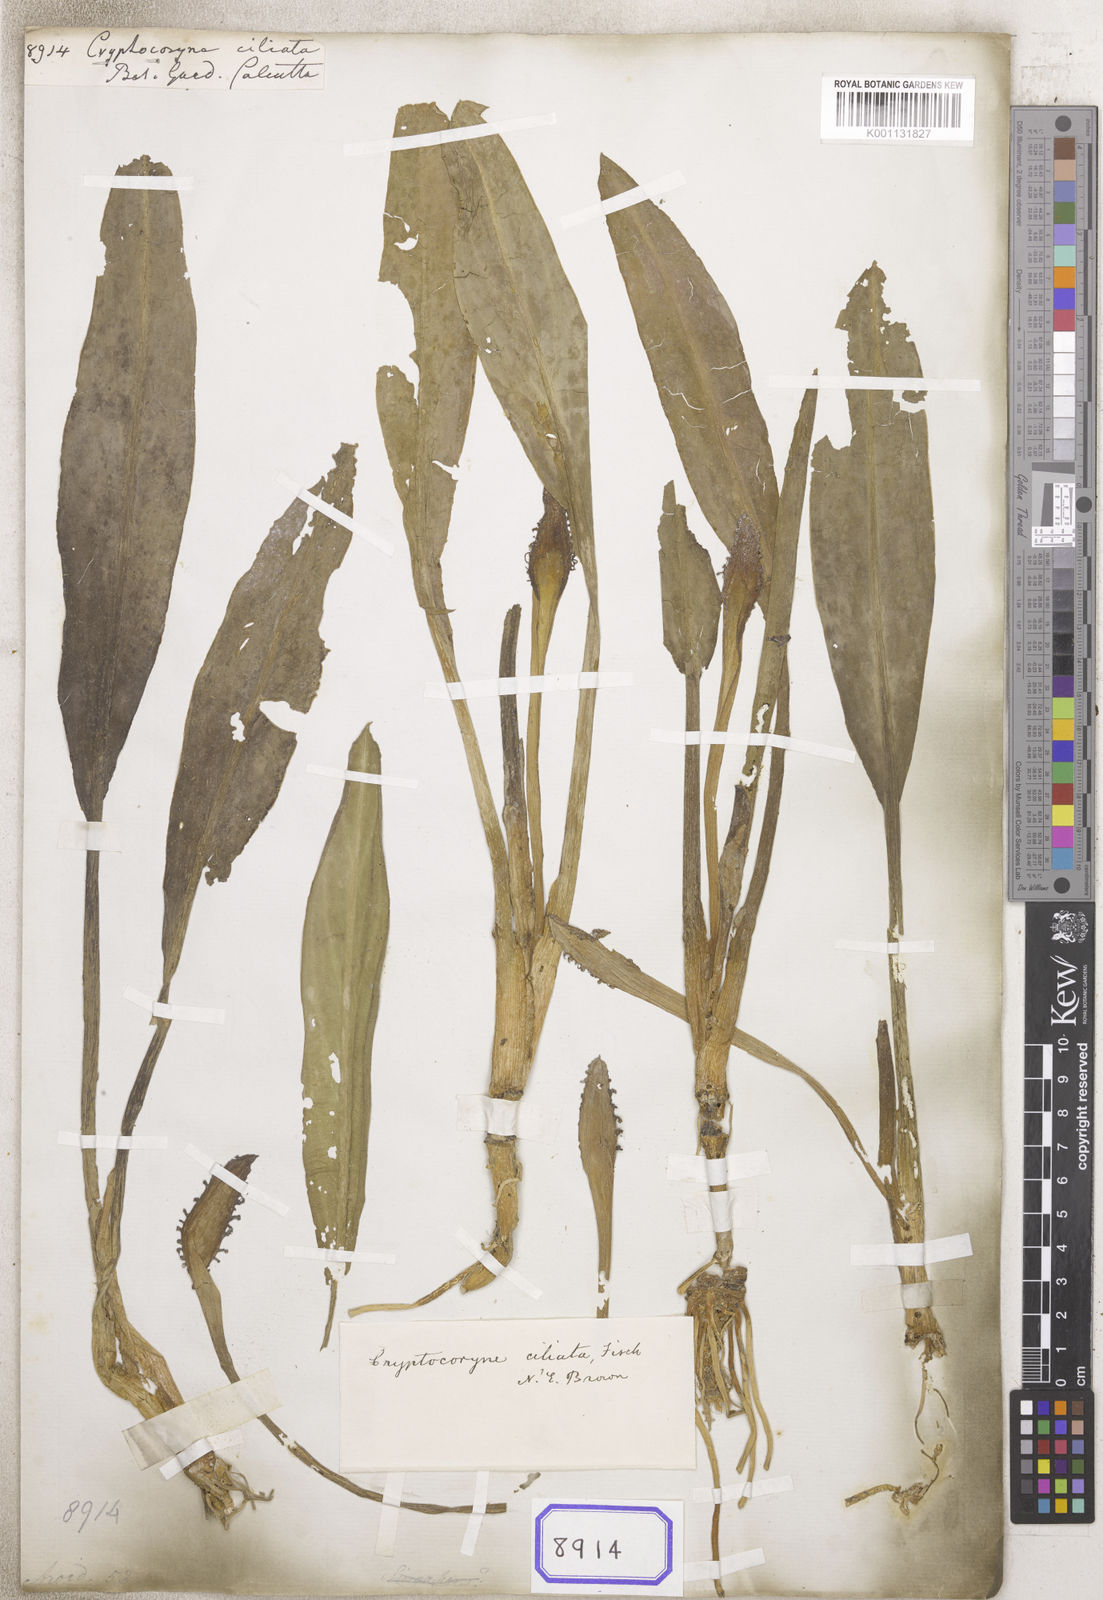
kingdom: Plantae
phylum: Tracheophyta
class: Liliopsida
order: Alismatales
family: Araceae
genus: Cryptocoryne
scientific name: Cryptocoryne ciliata
